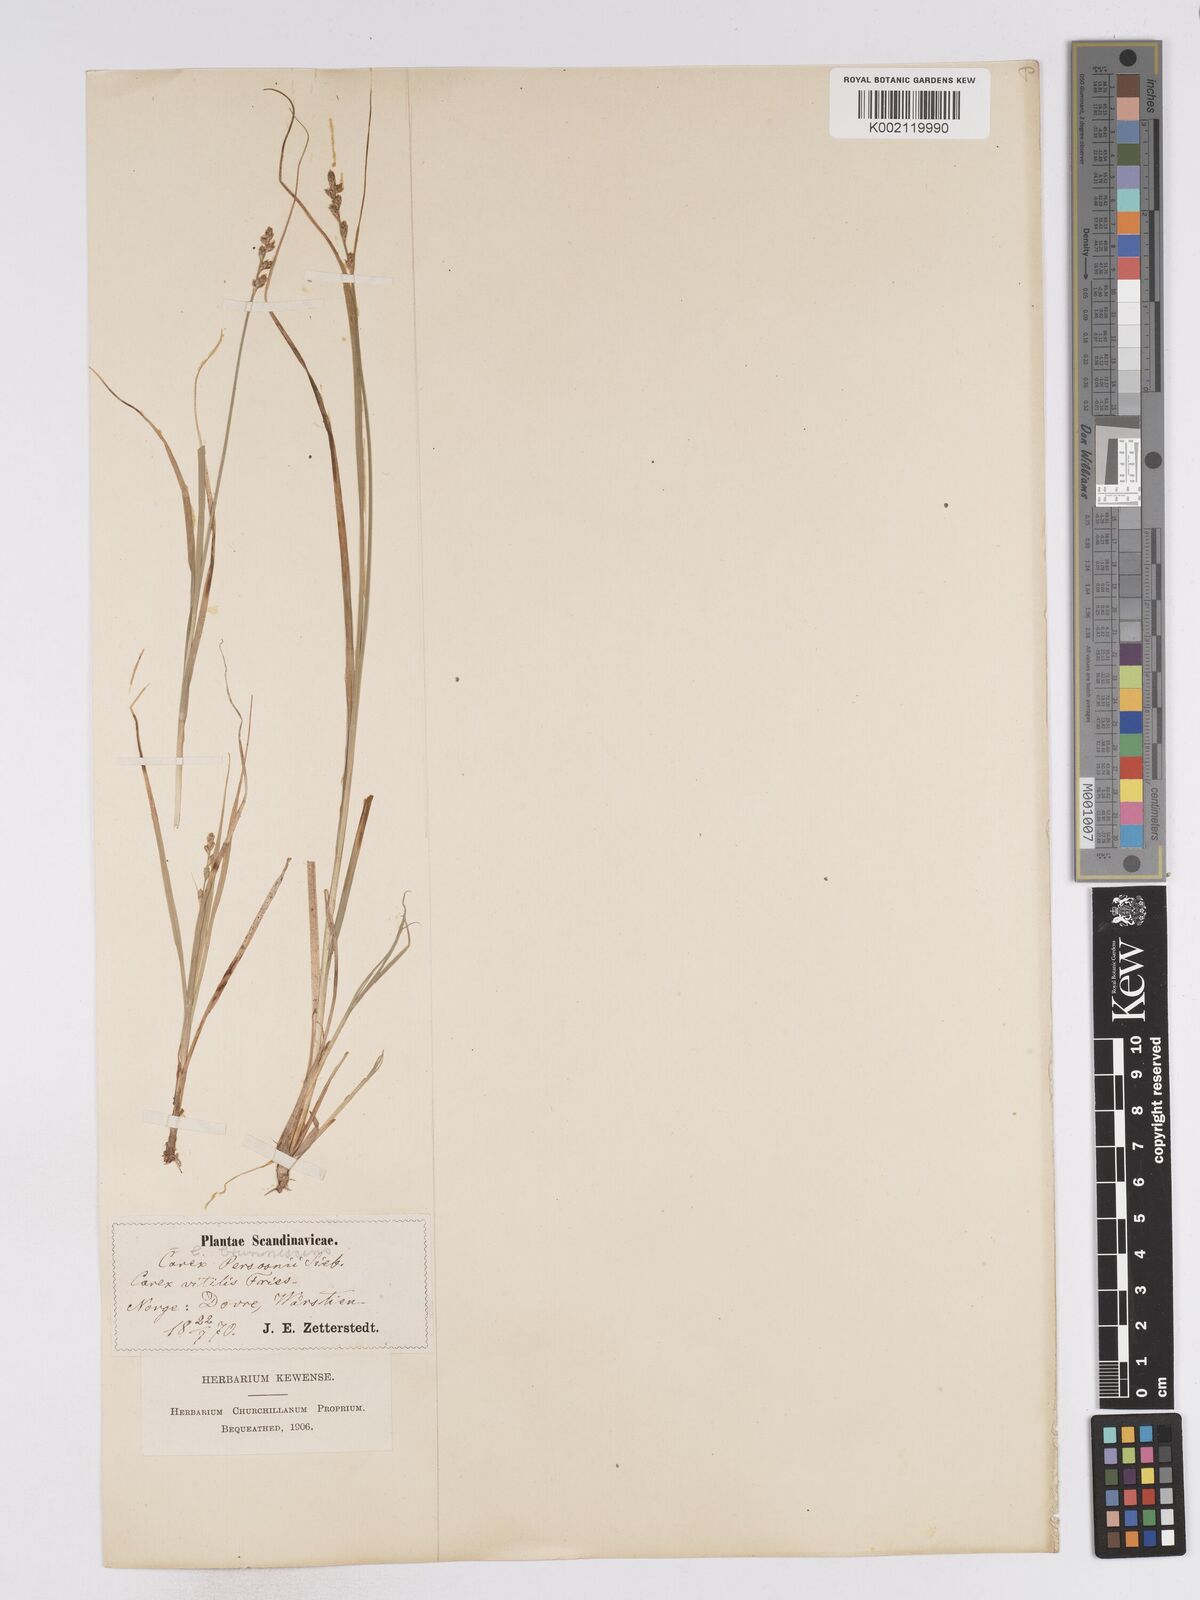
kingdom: Plantae
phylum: Tracheophyta
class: Liliopsida
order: Poales
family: Cyperaceae
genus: Carex
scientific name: Carex brunnescens
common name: Brown sedge
